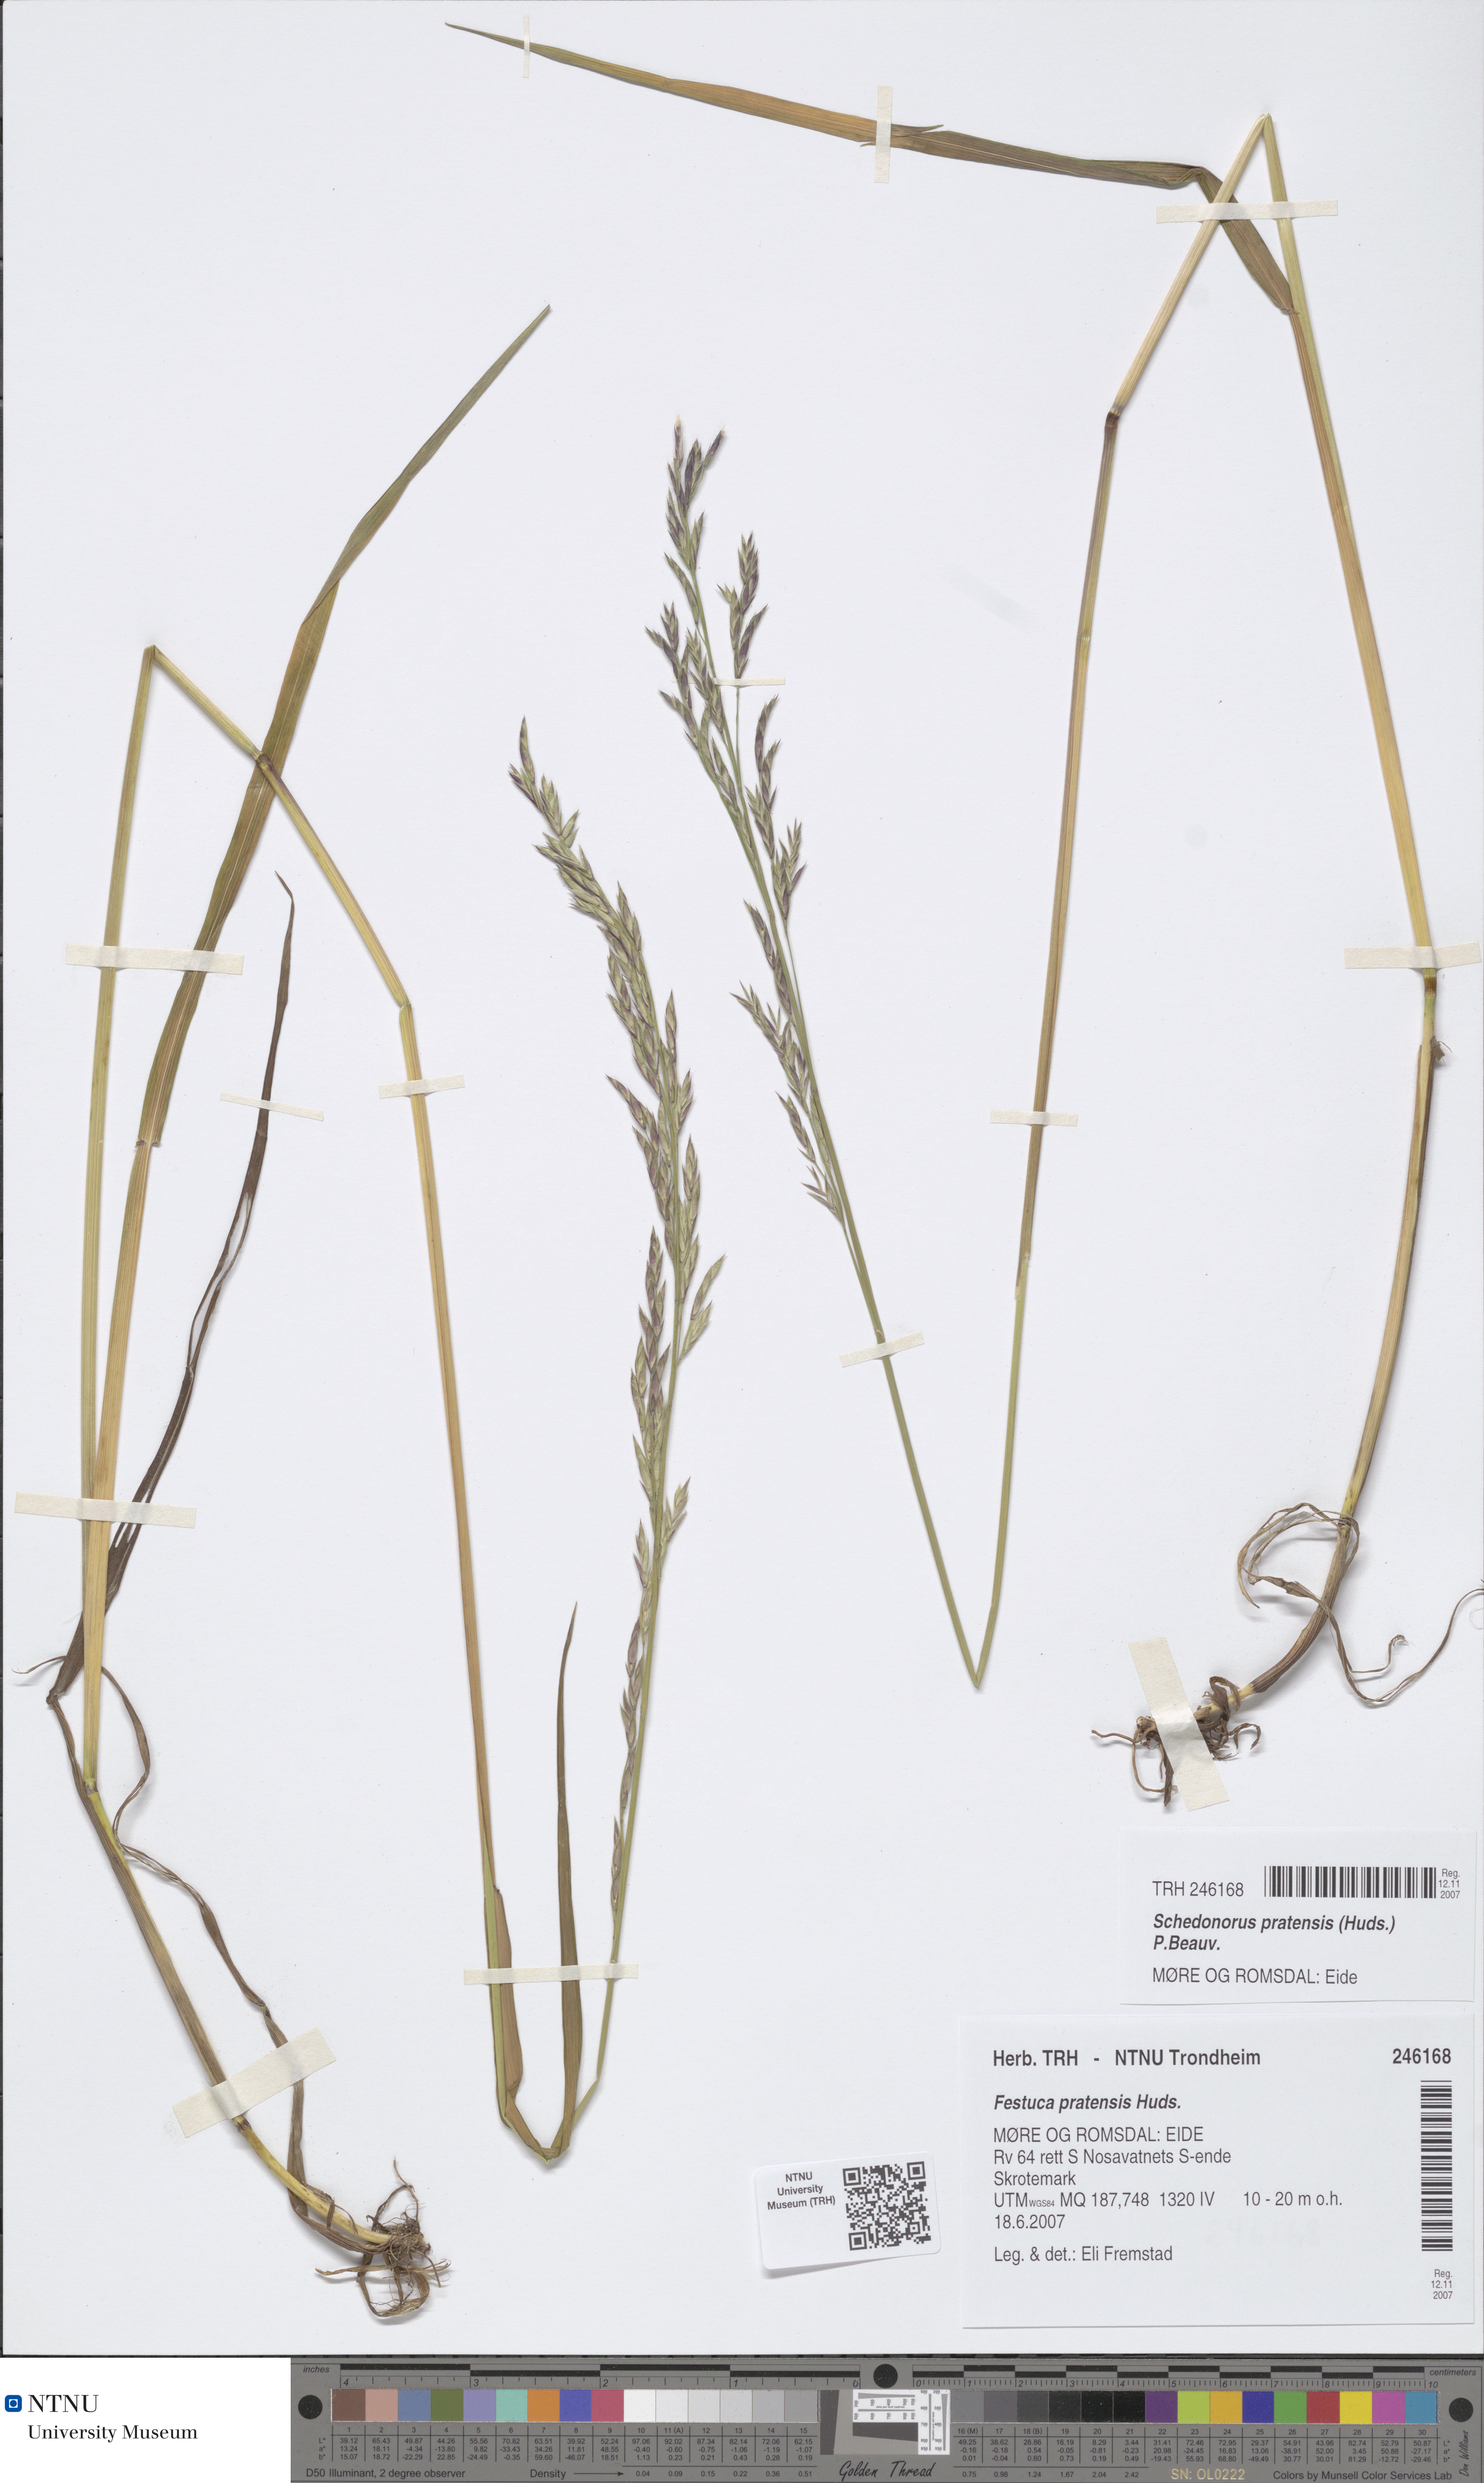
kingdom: Plantae
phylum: Tracheophyta
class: Liliopsida
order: Poales
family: Poaceae
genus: Lolium
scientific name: Lolium pratense
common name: Dover grass
